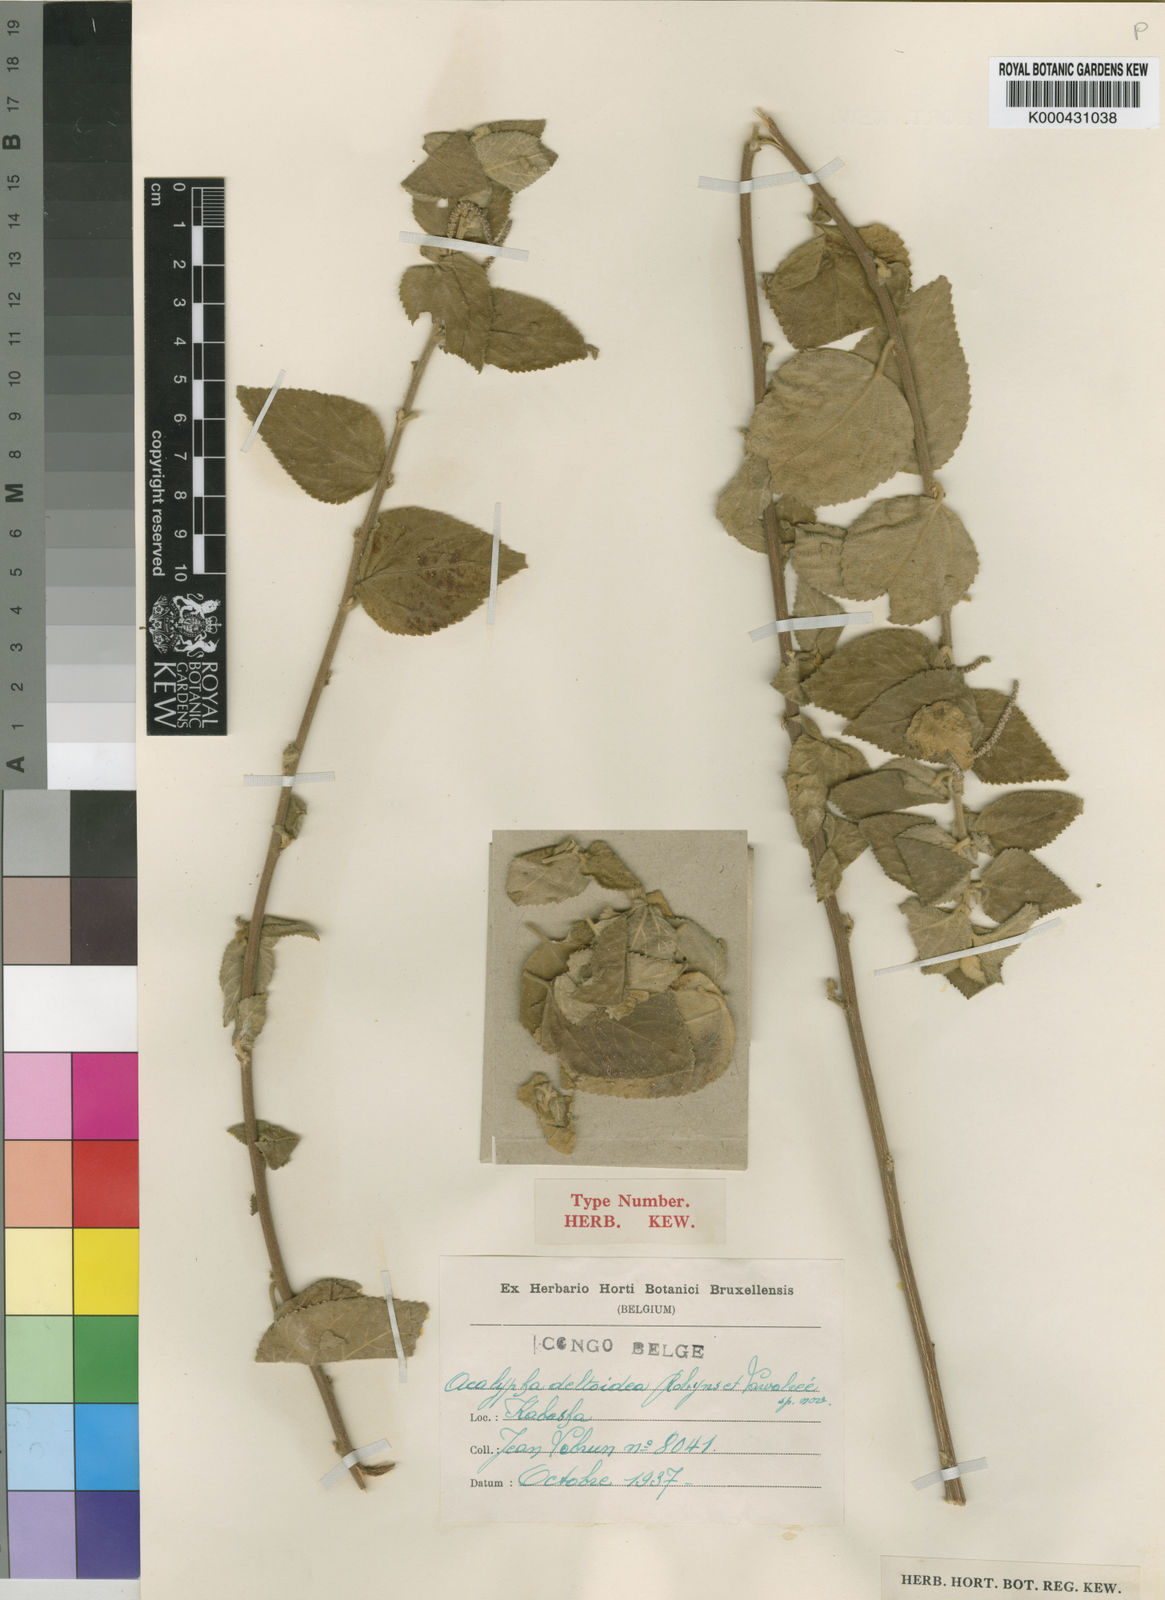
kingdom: Plantae
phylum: Tracheophyta
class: Magnoliopsida
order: Malpighiales
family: Euphorbiaceae
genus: Acalypha
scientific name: Acalypha
